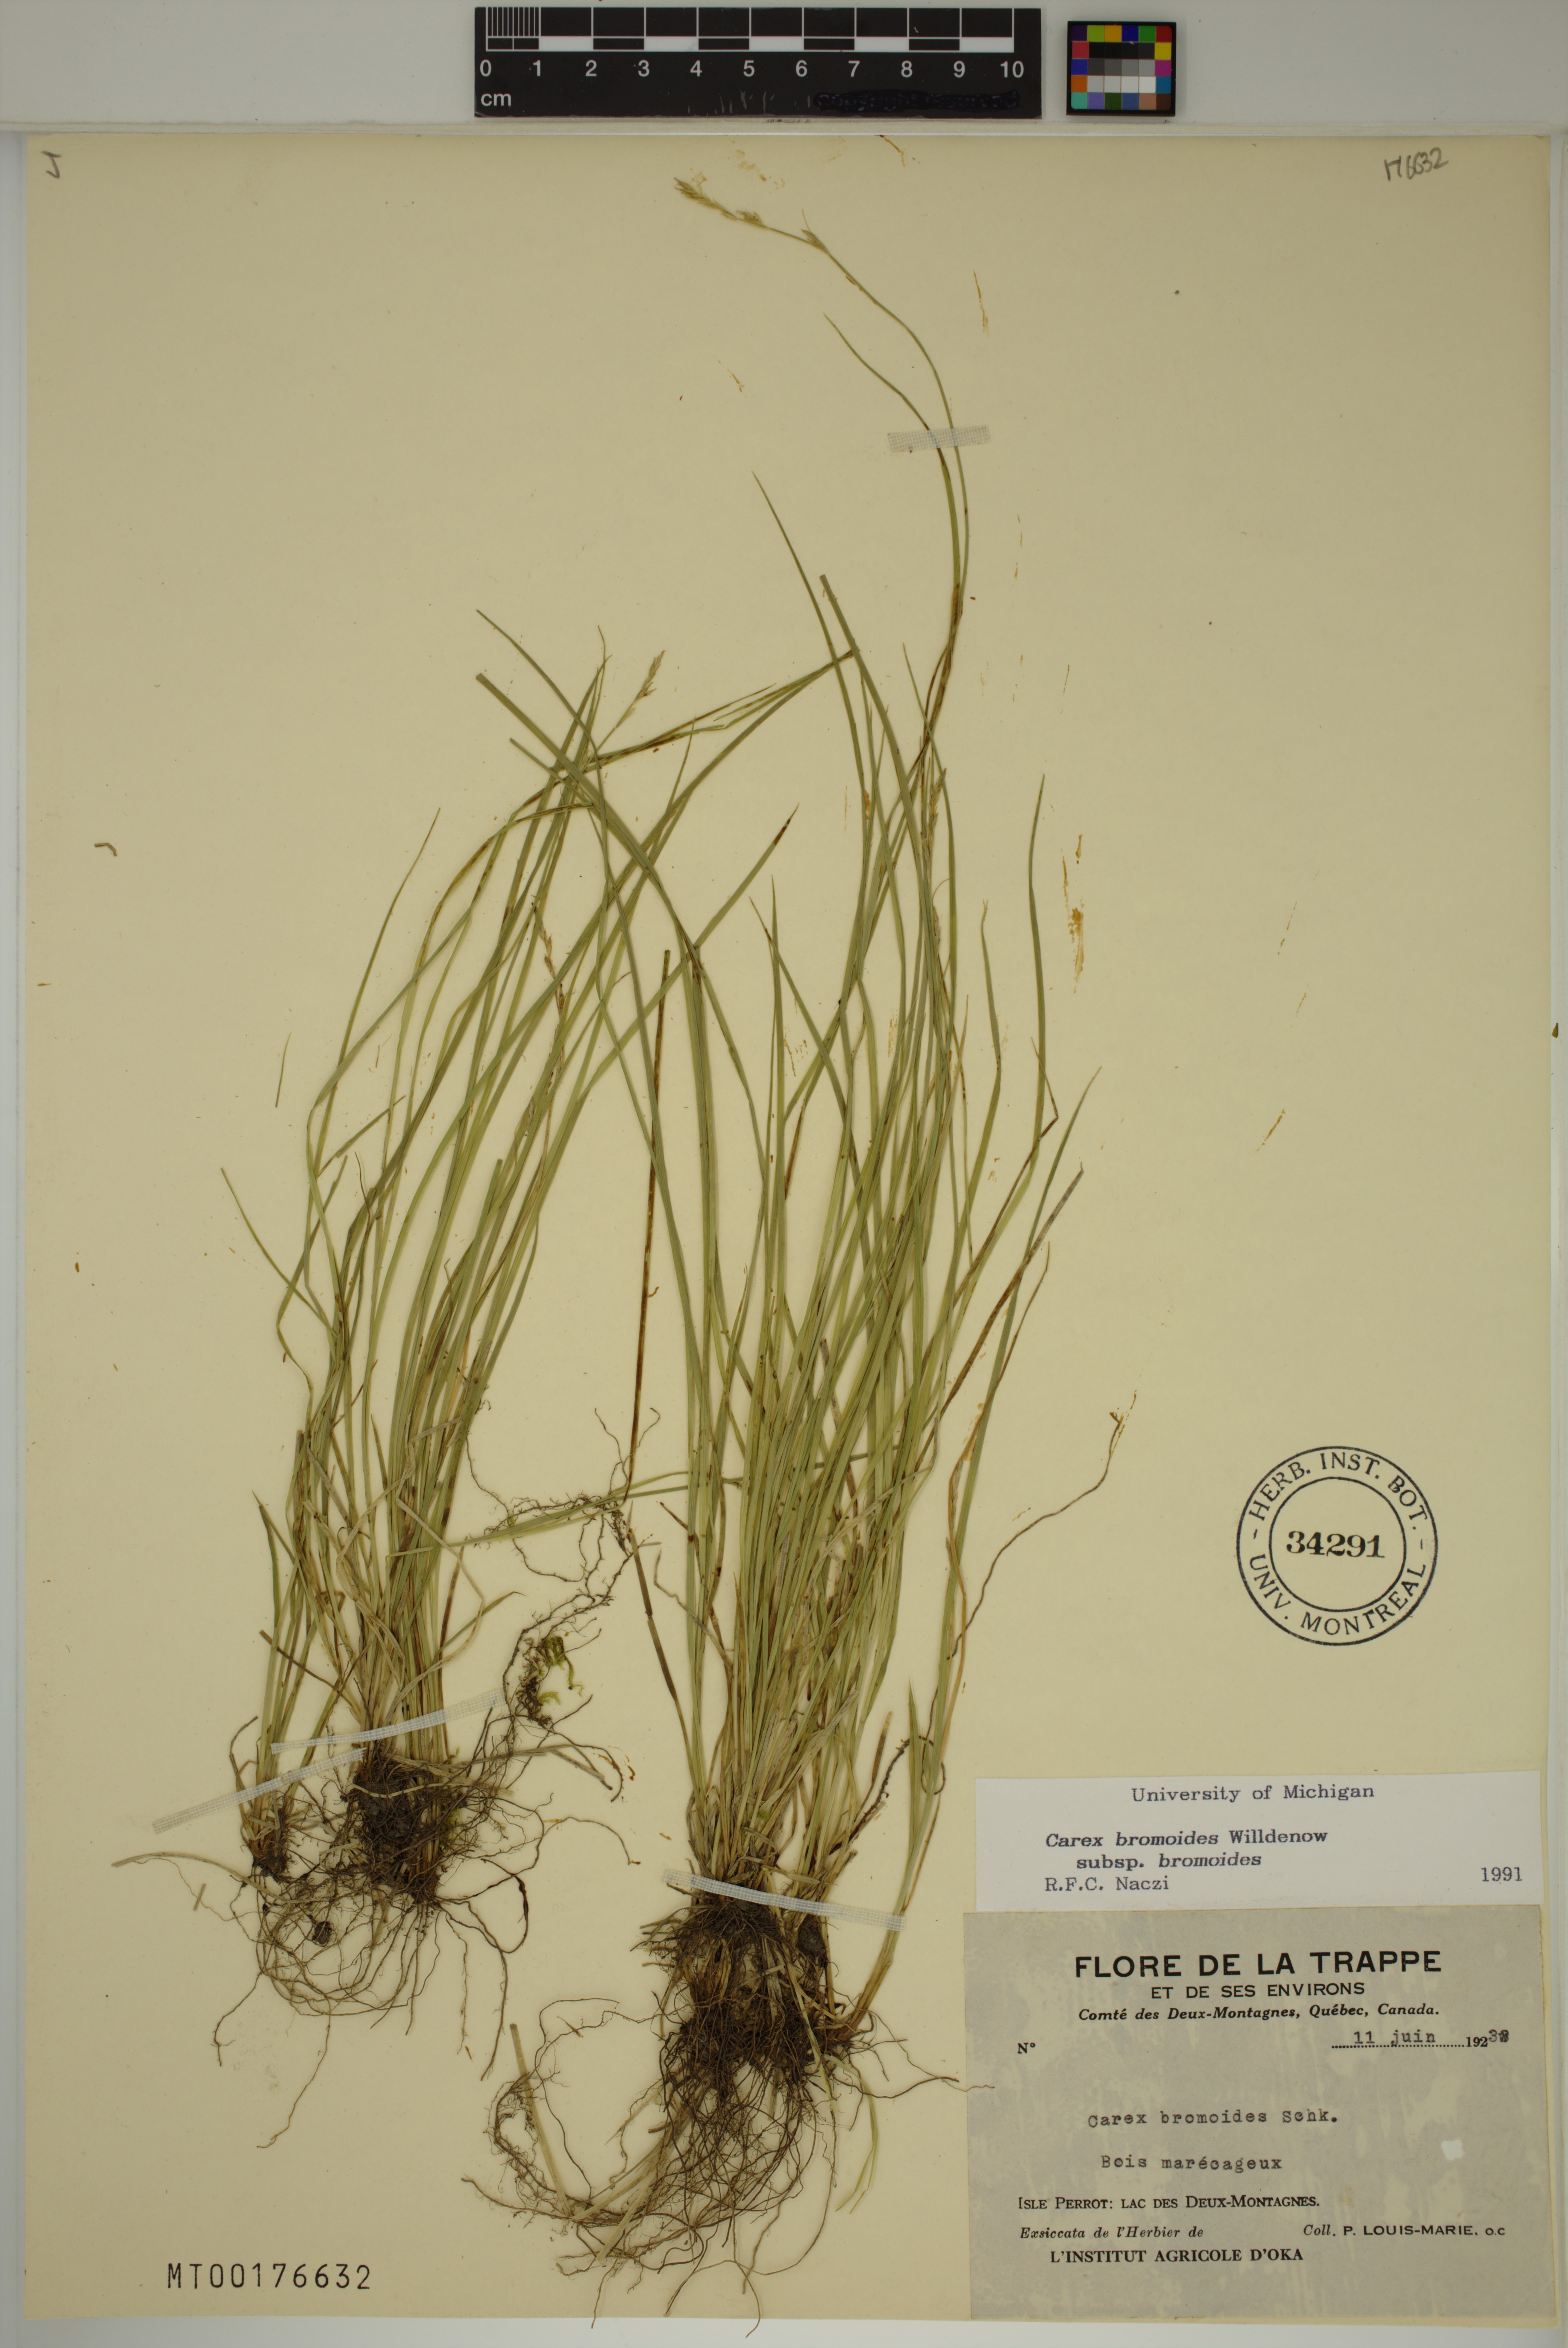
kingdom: Plantae
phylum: Tracheophyta
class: Liliopsida
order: Poales
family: Cyperaceae
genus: Carex
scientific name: Carex bromoides
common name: Brome hummock sedge
